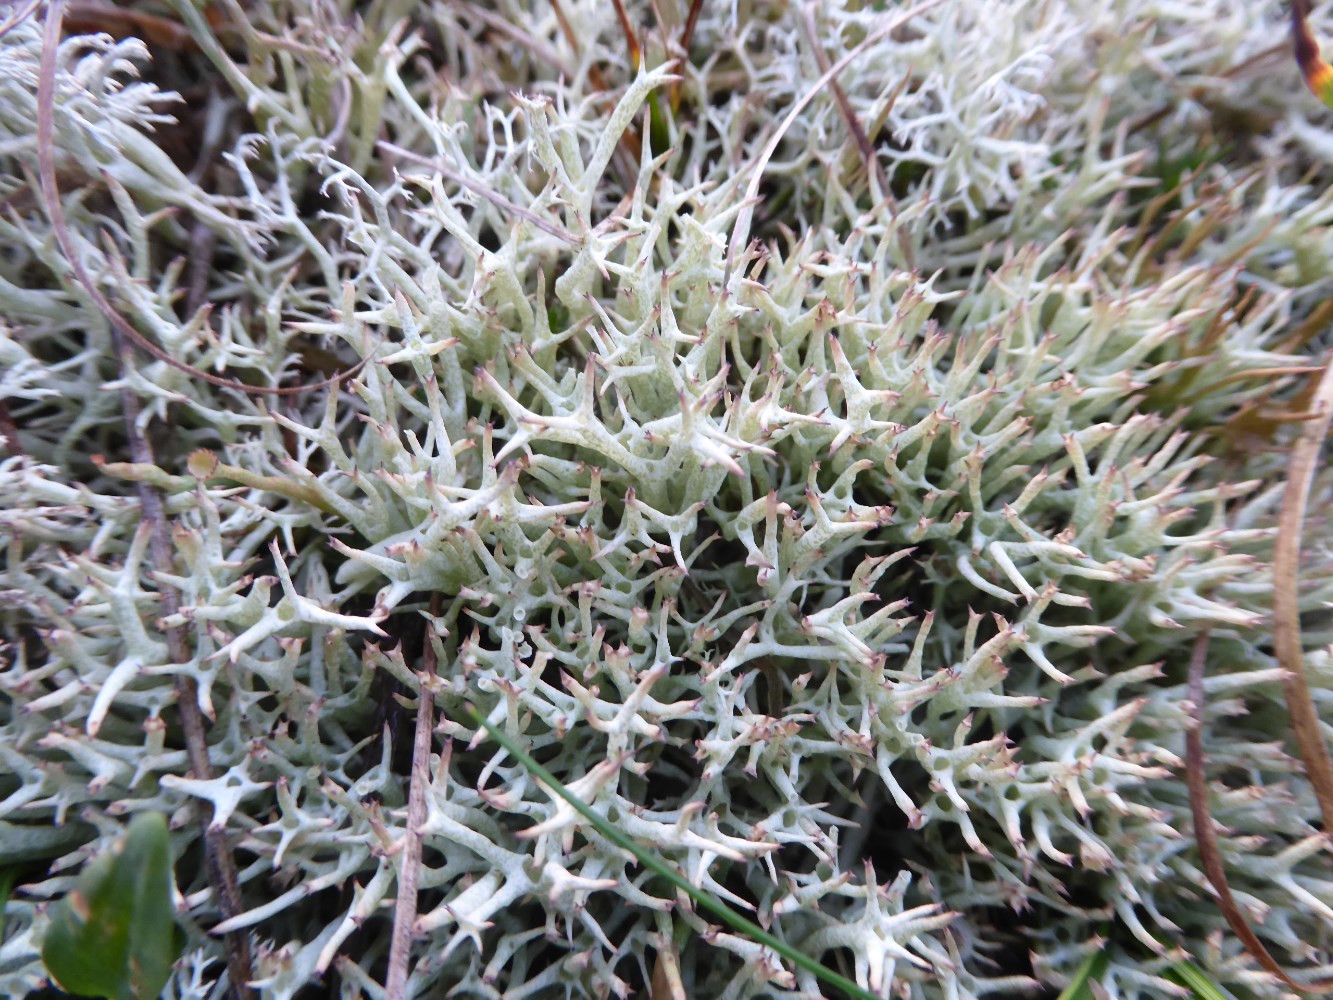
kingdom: Fungi
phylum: Ascomycota
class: Lecanoromycetes
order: Lecanorales
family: Cladoniaceae
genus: Cladonia
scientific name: Cladonia uncialis
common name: pigget bægerlav
